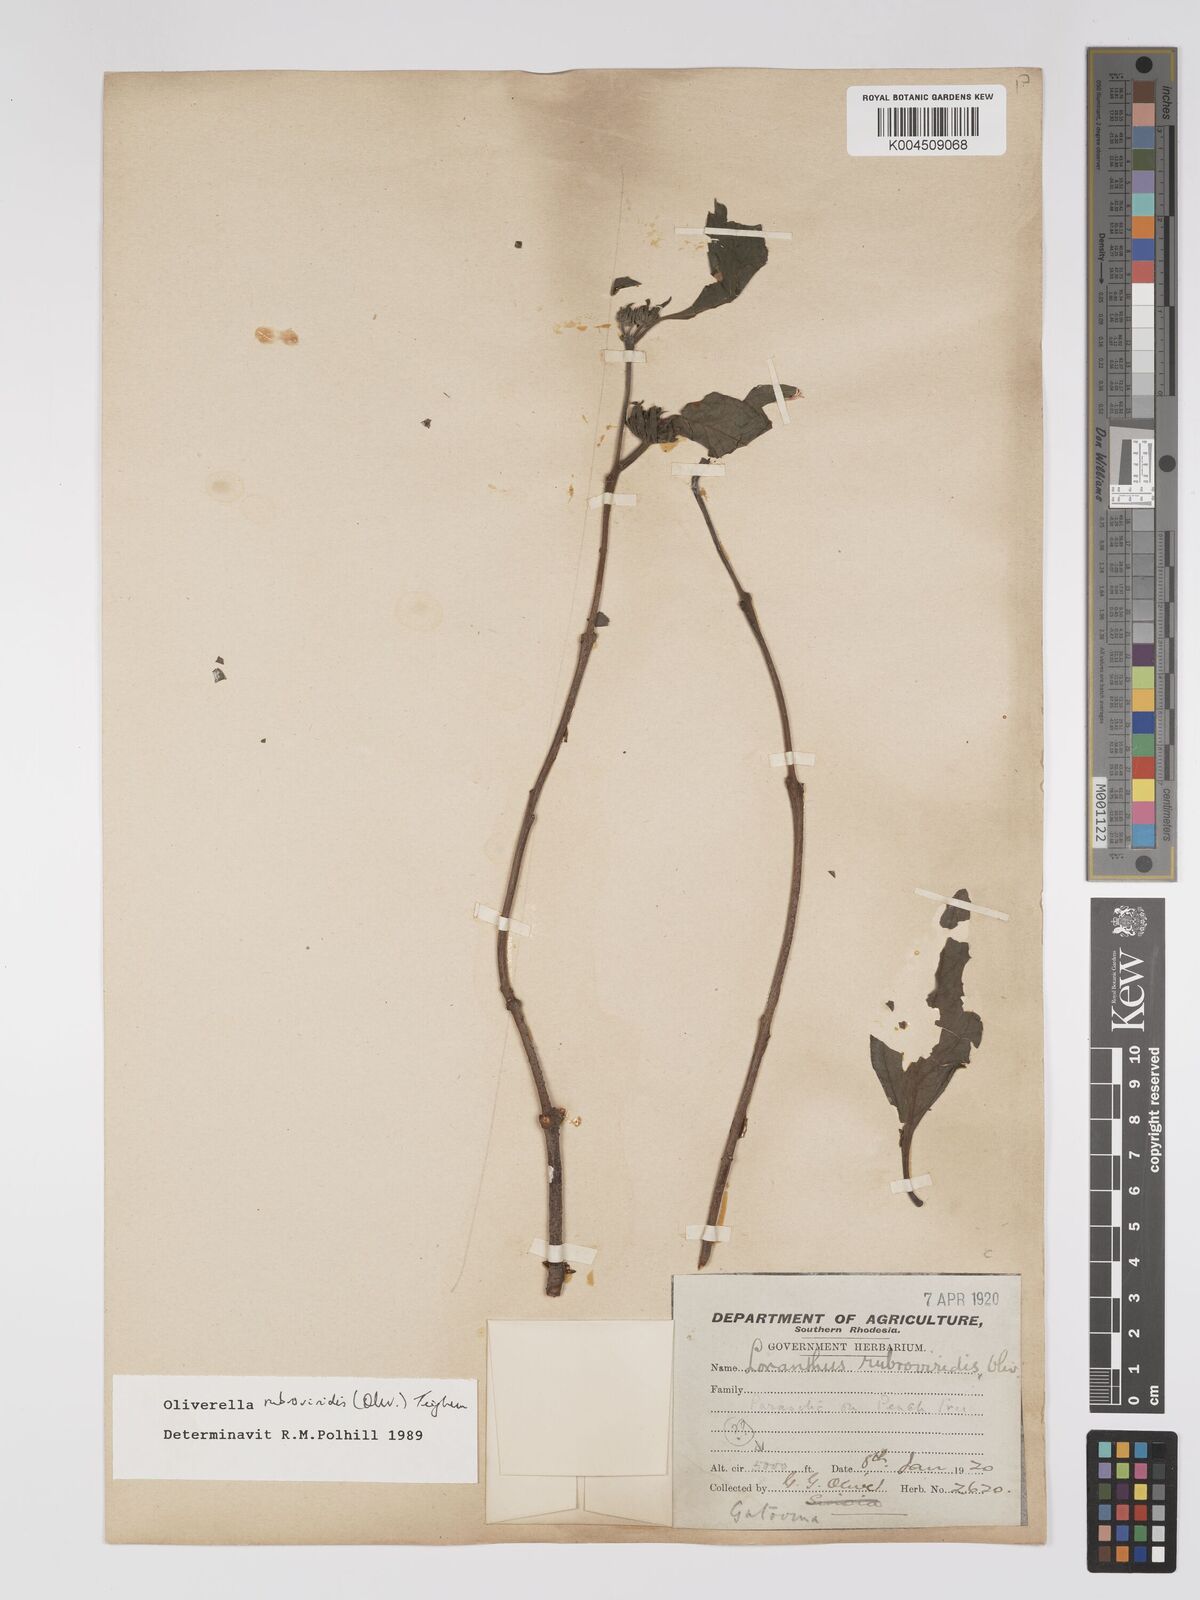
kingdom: Plantae
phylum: Tracheophyta
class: Magnoliopsida
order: Santalales
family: Loranthaceae
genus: Oliverella
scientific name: Oliverella rubroviridis
